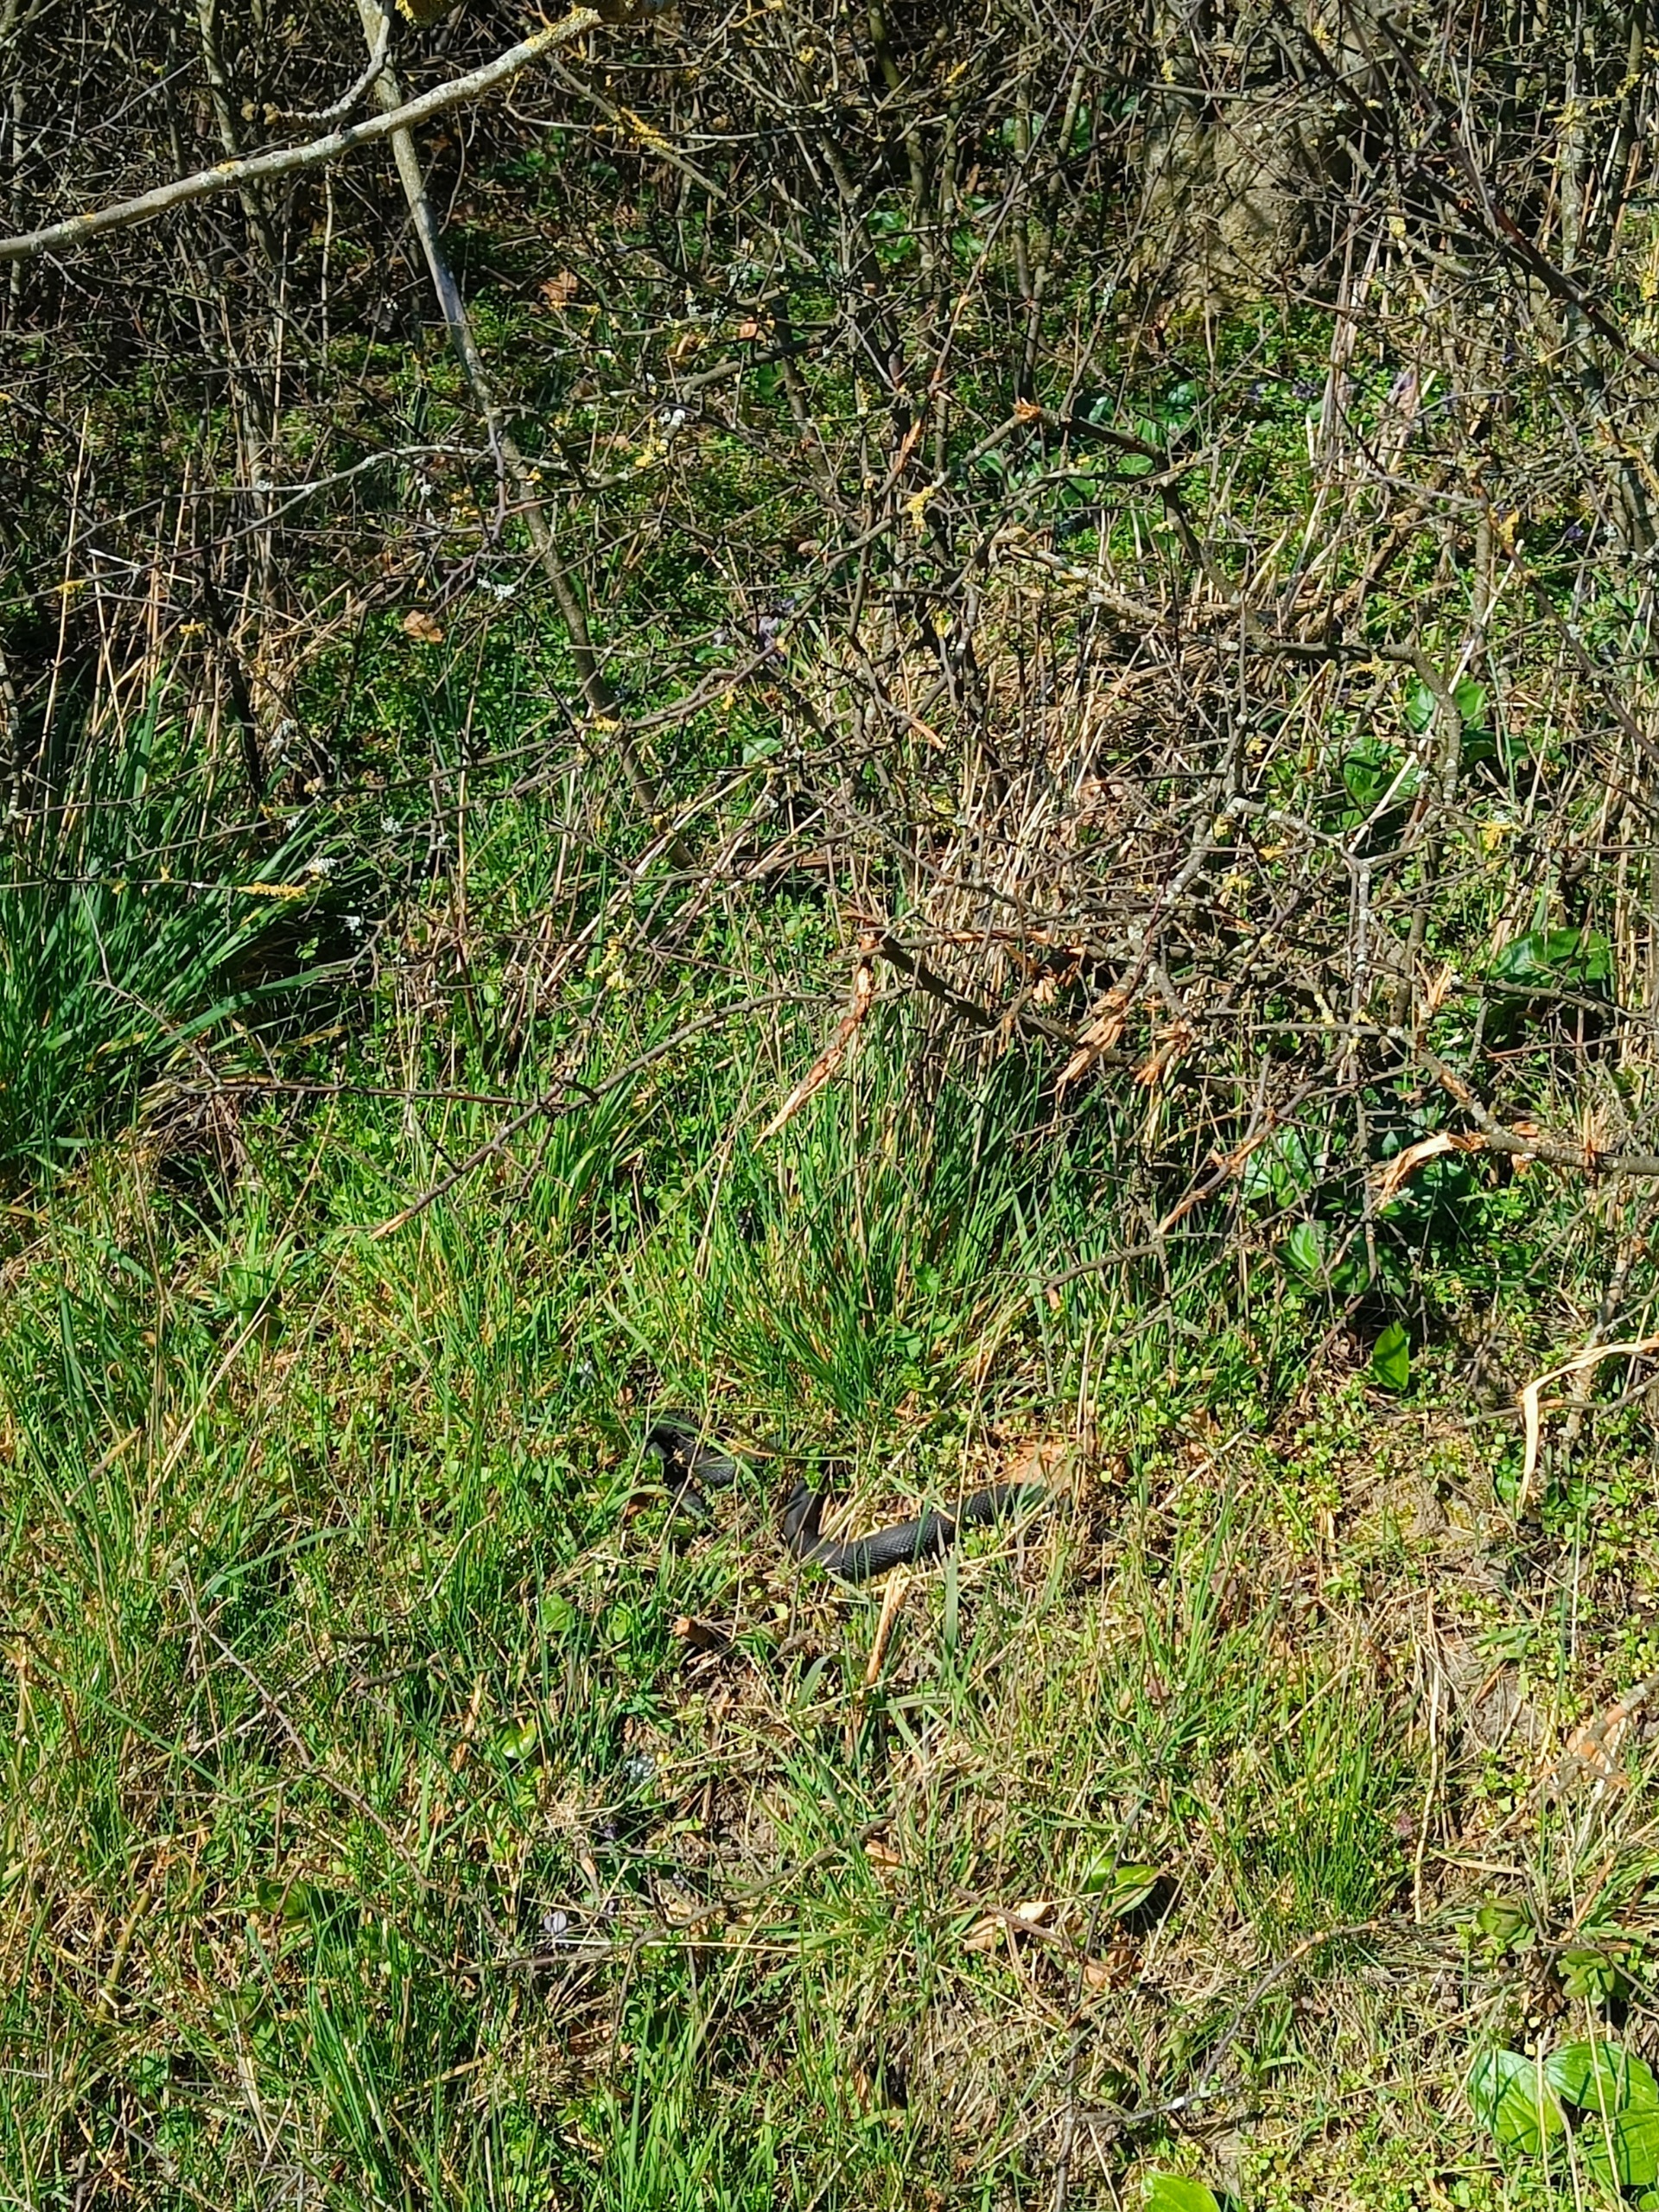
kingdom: Animalia
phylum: Chordata
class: Squamata
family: Viperidae
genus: Vipera
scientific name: Vipera berus
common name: Hugorm
